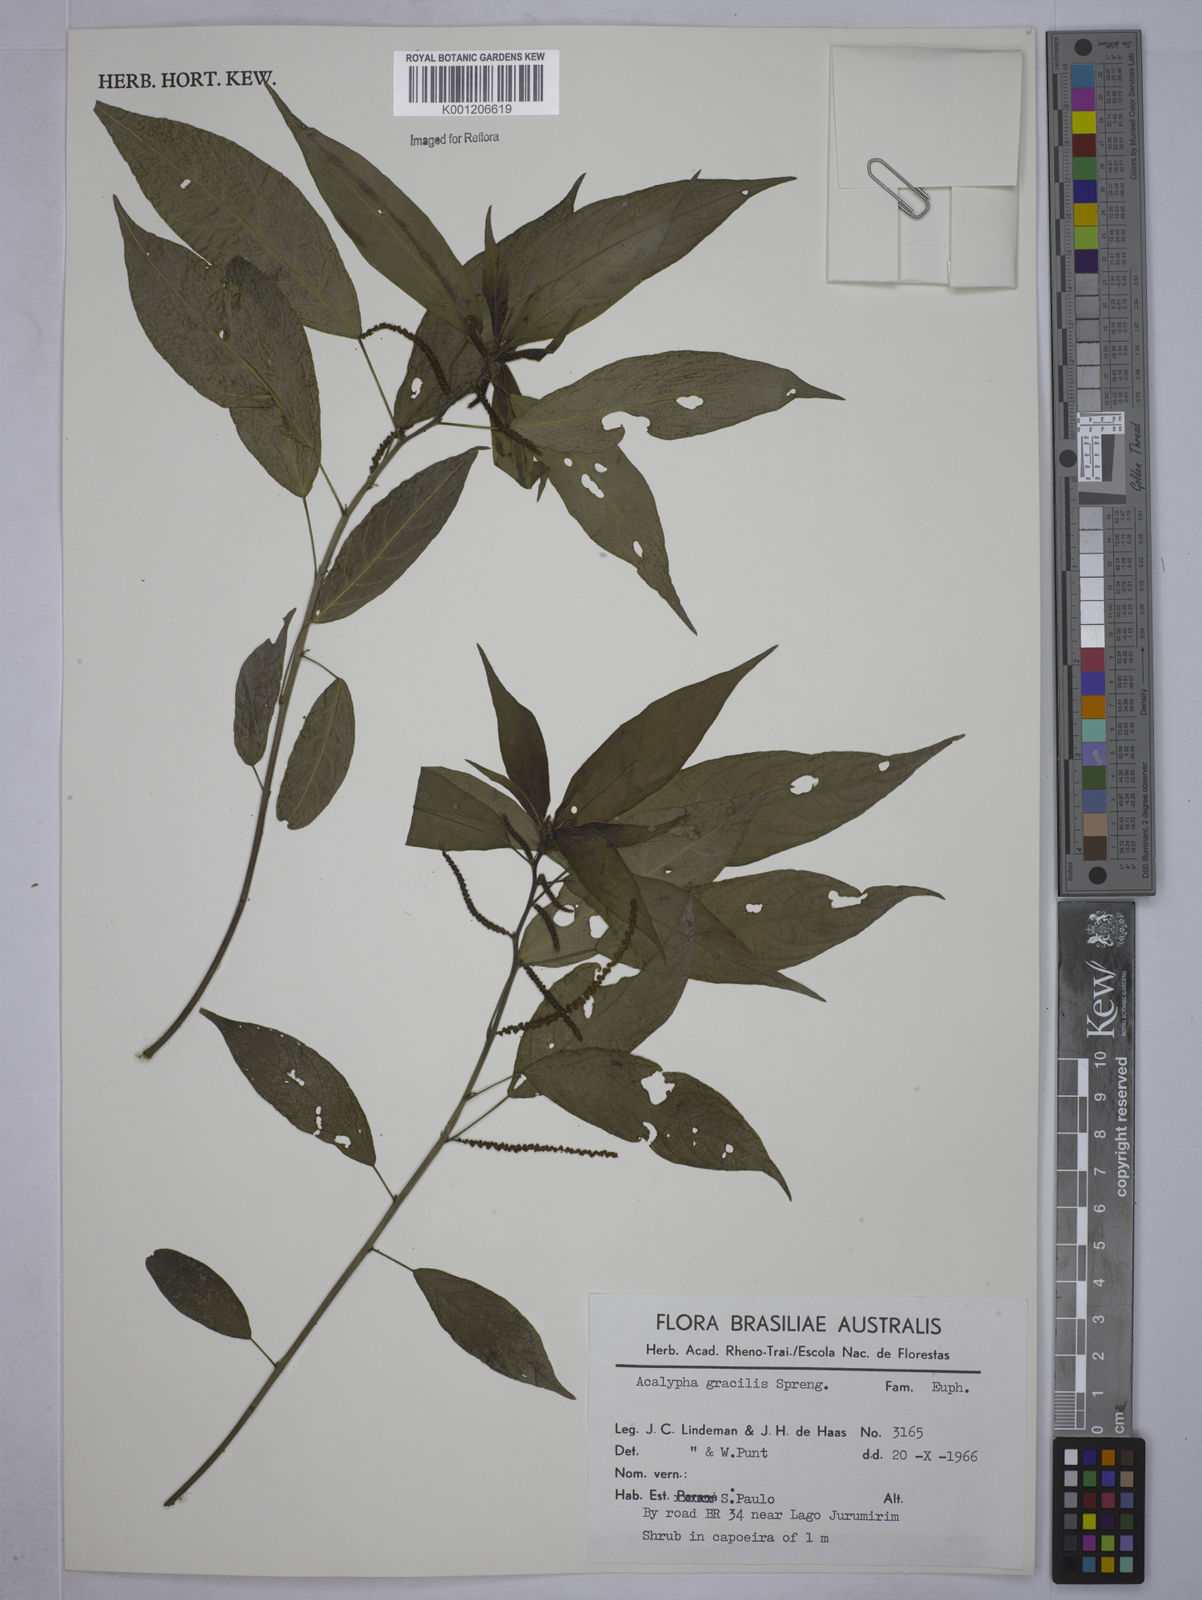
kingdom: Plantae
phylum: Tracheophyta
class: Magnoliopsida
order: Malpighiales
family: Euphorbiaceae
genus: Acalypha
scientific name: Acalypha gracilis
